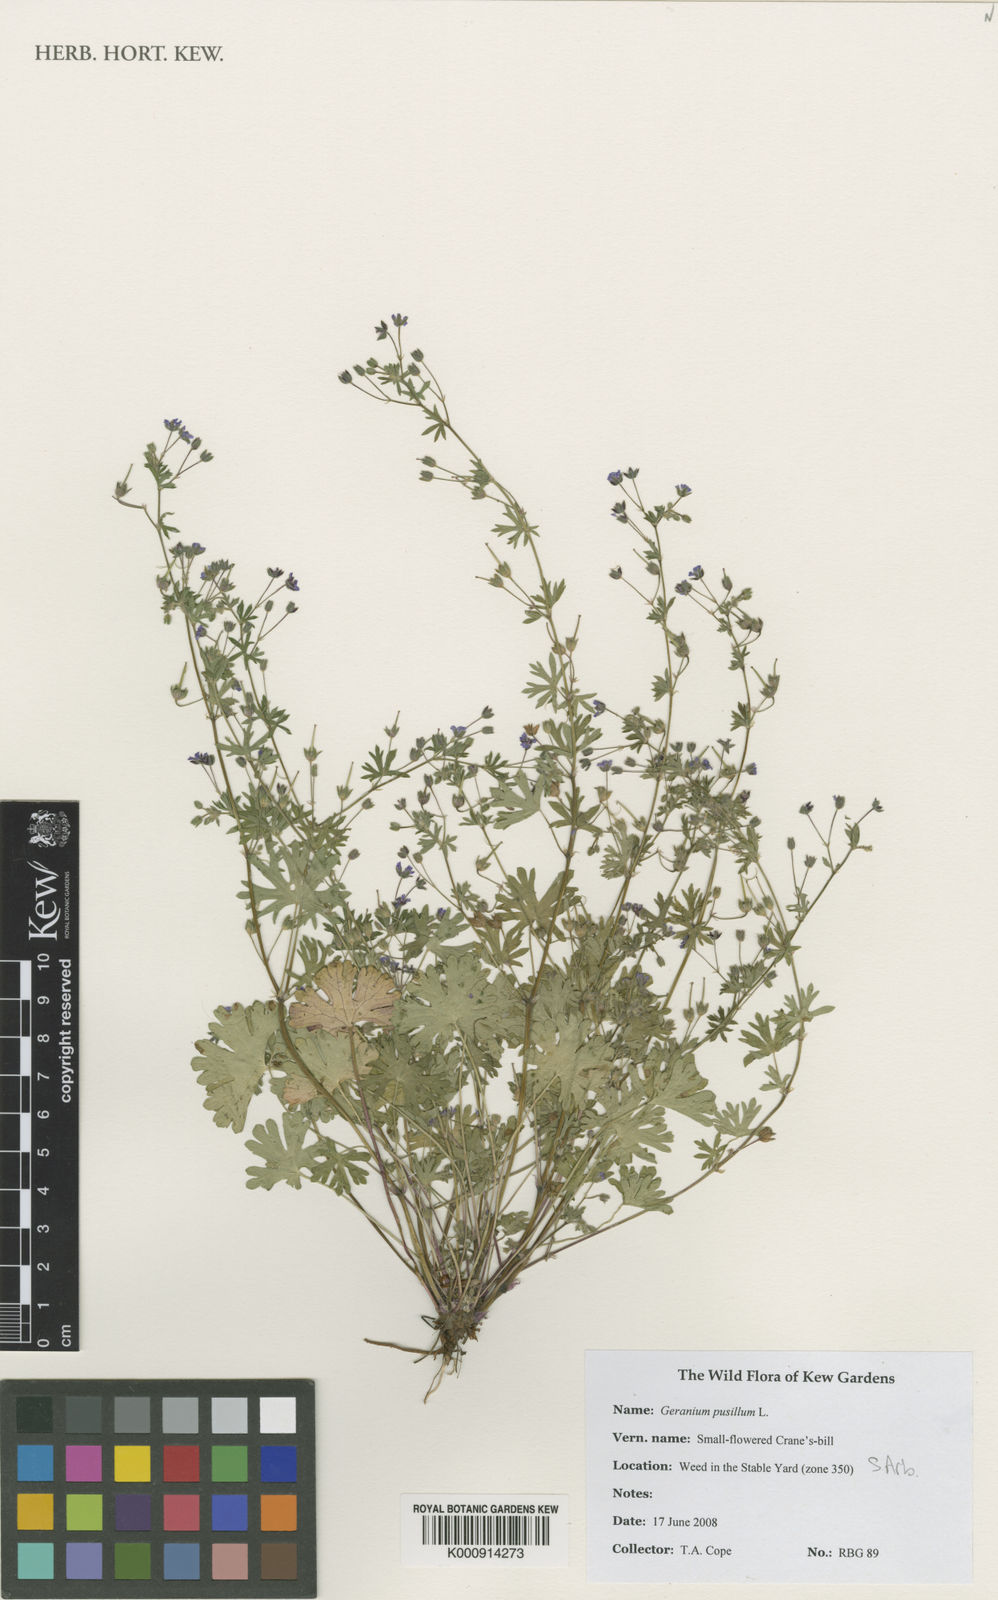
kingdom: Plantae
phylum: Tracheophyta
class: Magnoliopsida
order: Geraniales
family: Geraniaceae
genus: Geranium
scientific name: Geranium pusillum
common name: Small geranium
